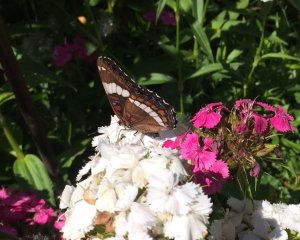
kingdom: Animalia
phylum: Arthropoda
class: Insecta
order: Lepidoptera
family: Nymphalidae
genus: Limenitis
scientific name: Limenitis arthemis
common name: Red-spotted Admiral
